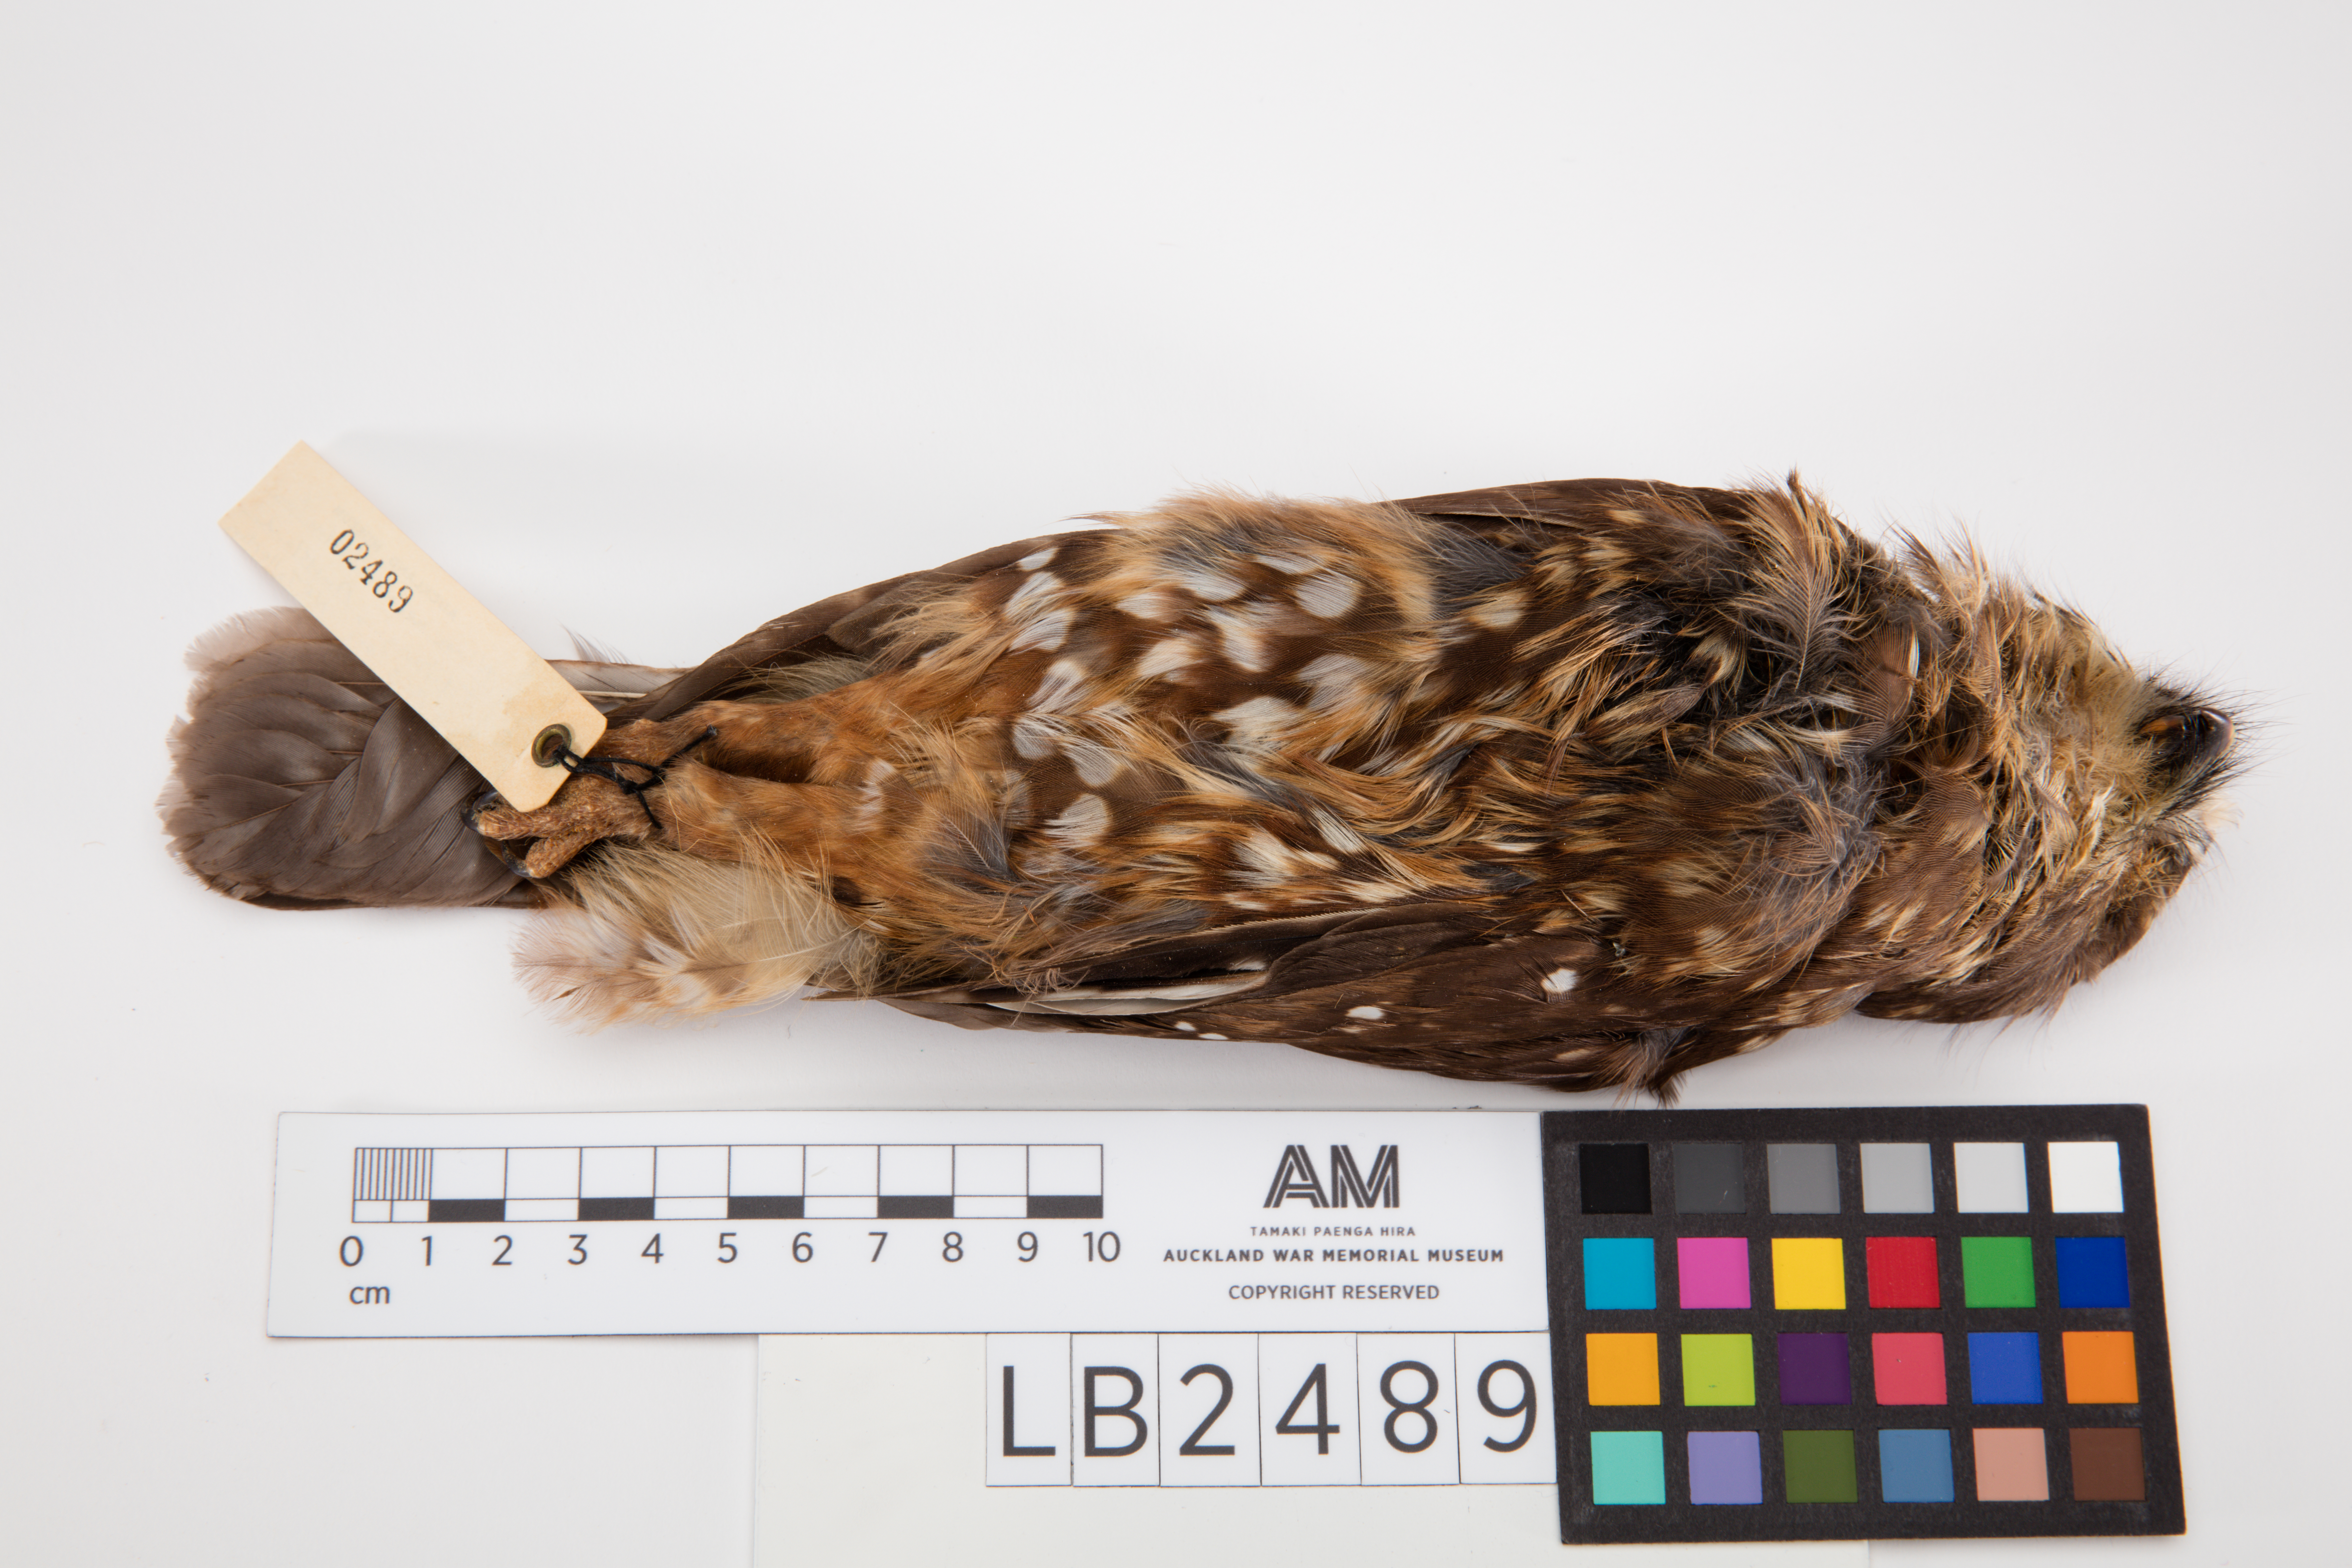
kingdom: Animalia
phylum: Chordata
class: Aves
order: Strigiformes
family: Strigidae
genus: Ninox
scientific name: Ninox novaeseelandiae
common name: Morepork
